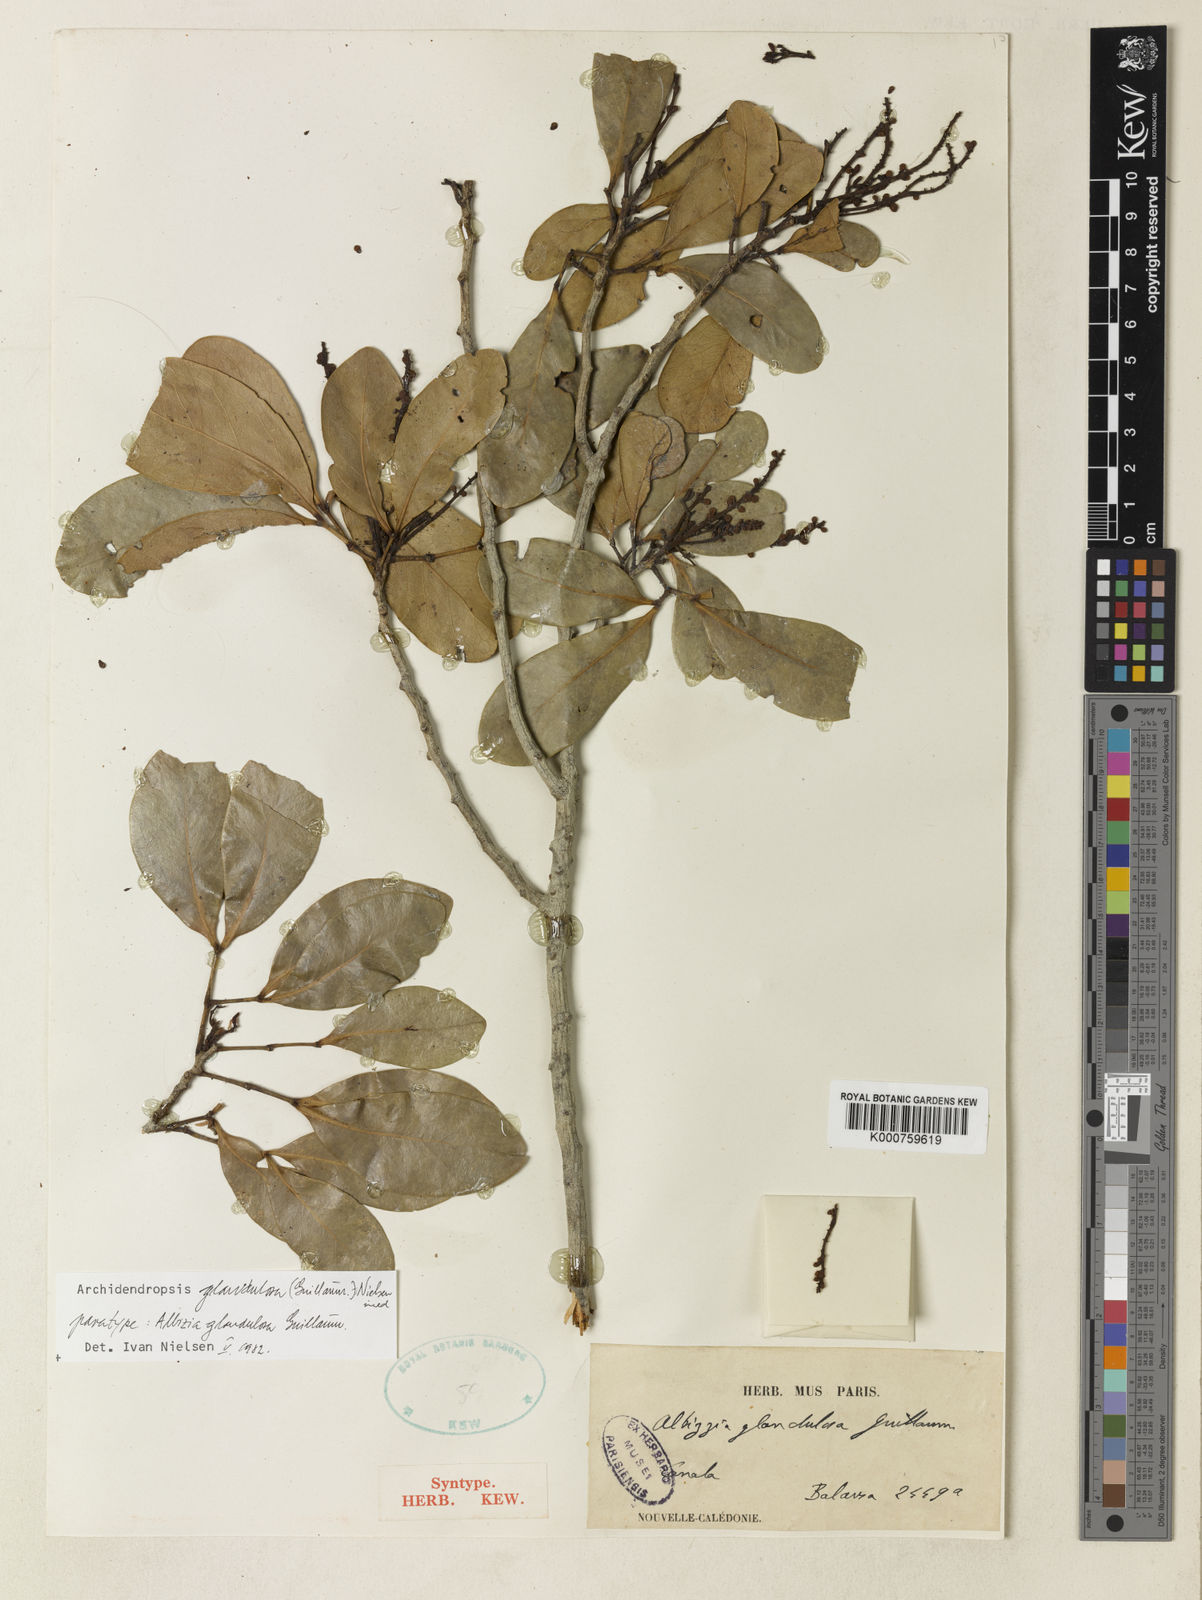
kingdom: Plantae
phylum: Tracheophyta
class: Magnoliopsida
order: Fabales
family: Fabaceae
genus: Archidendropsis
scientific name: Archidendropsis glandulosa
